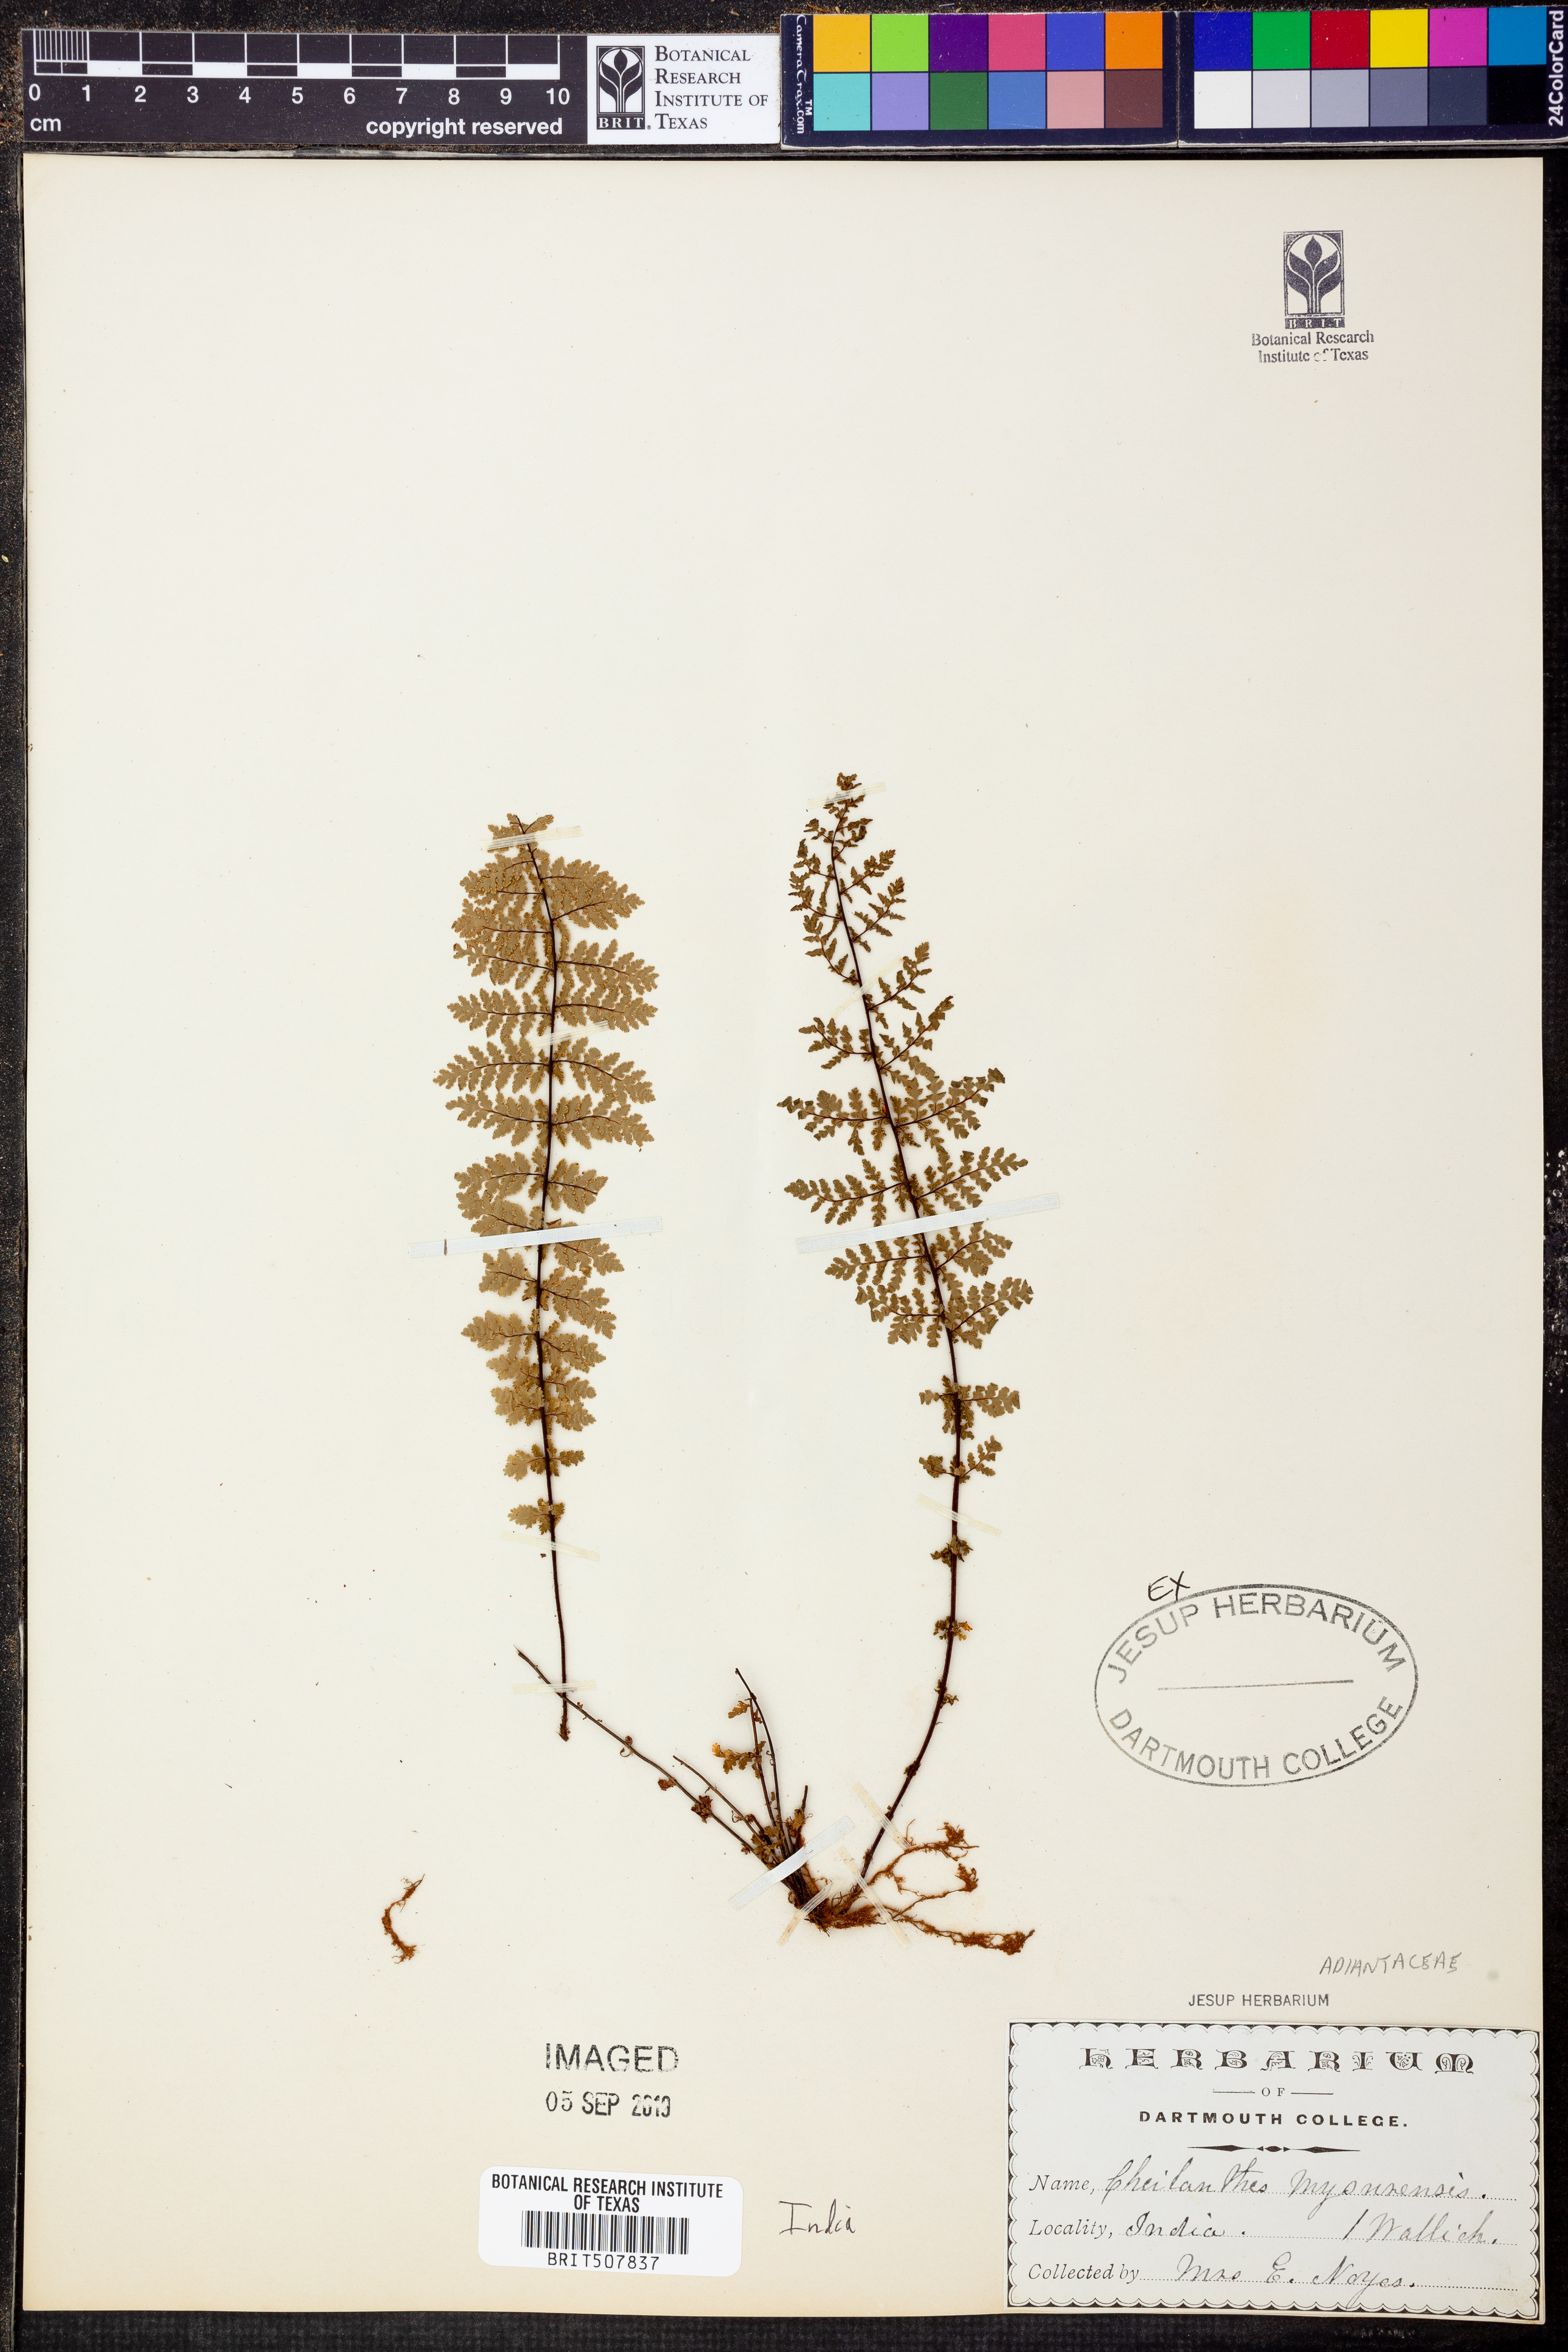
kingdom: Plantae
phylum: Tracheophyta
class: Polypodiopsida
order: Polypodiales
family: Pteridaceae
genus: Oeosporangium
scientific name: Oeosporangium elegans
